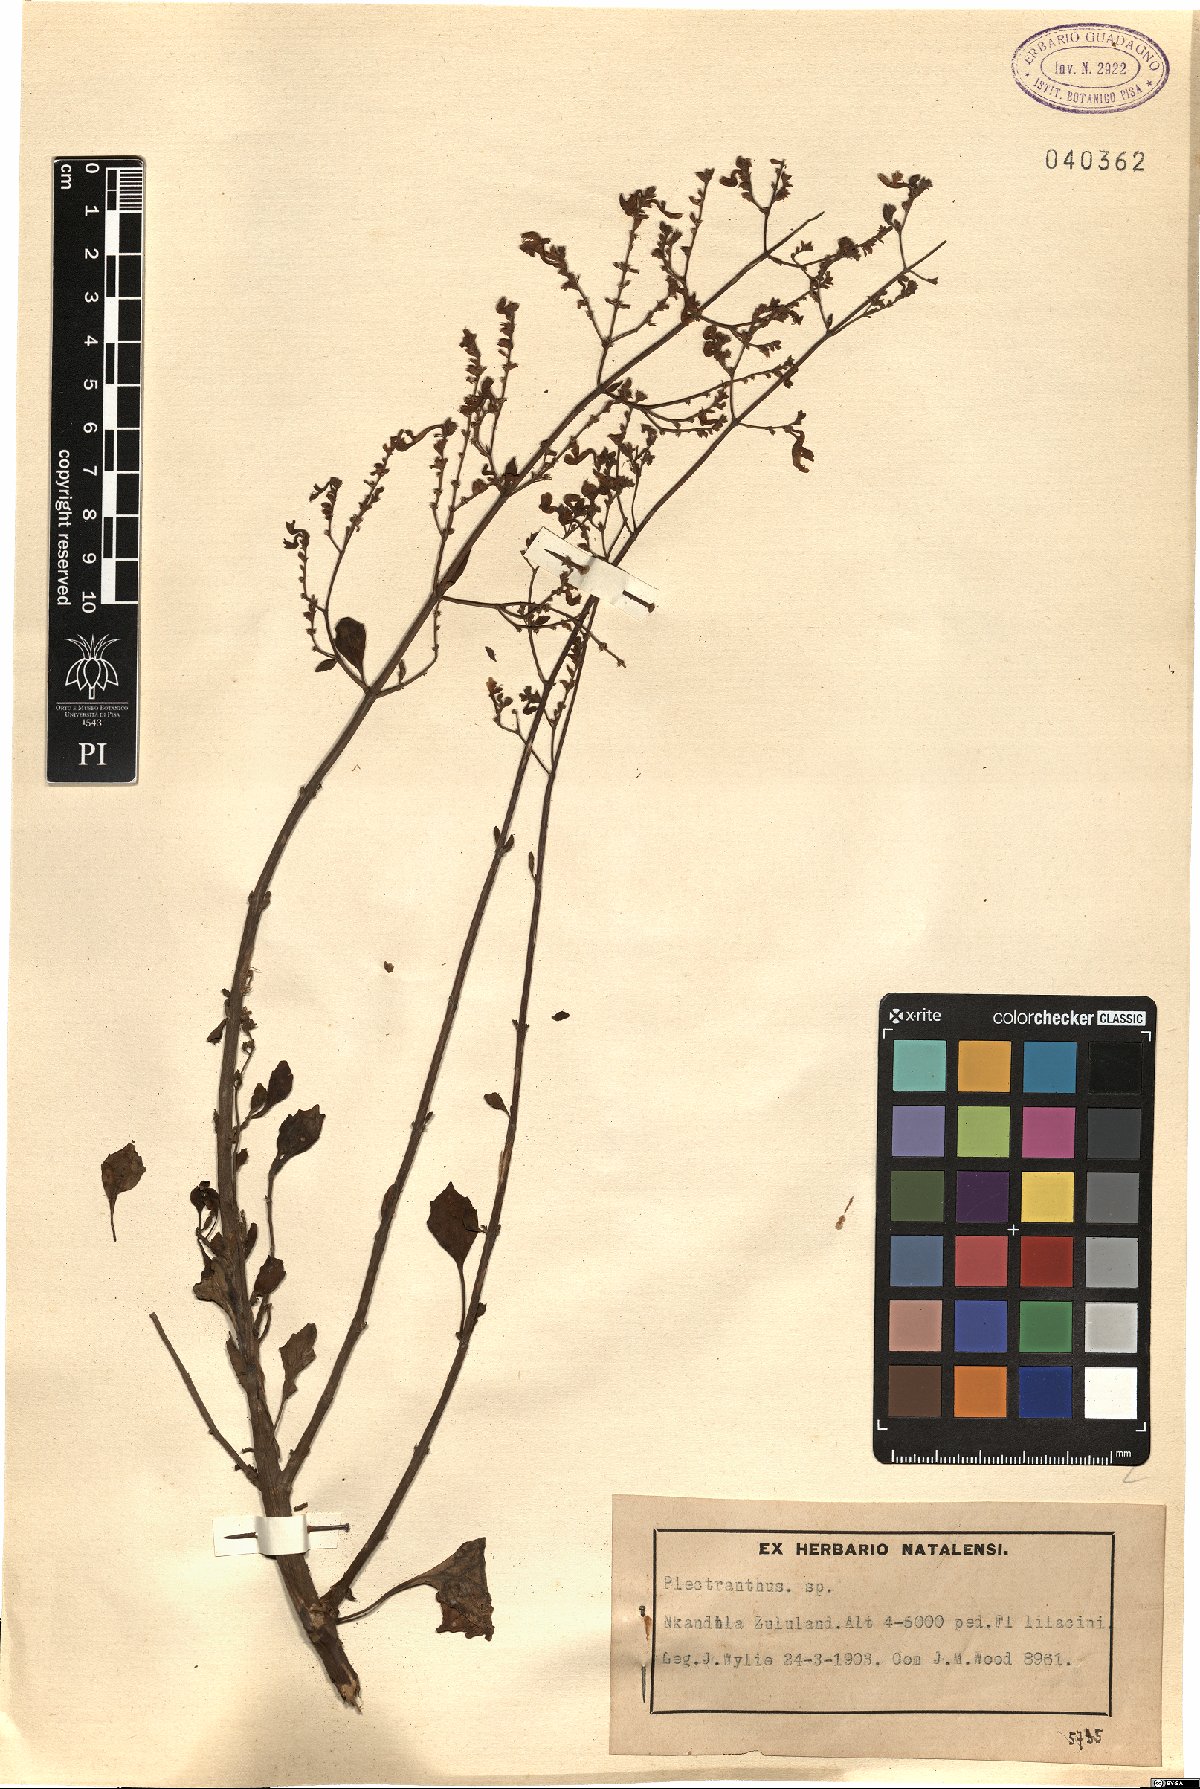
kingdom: Plantae
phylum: Tracheophyta
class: Magnoliopsida
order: Lamiales
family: Lamiaceae
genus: Plectranthus
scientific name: Plectranthus
